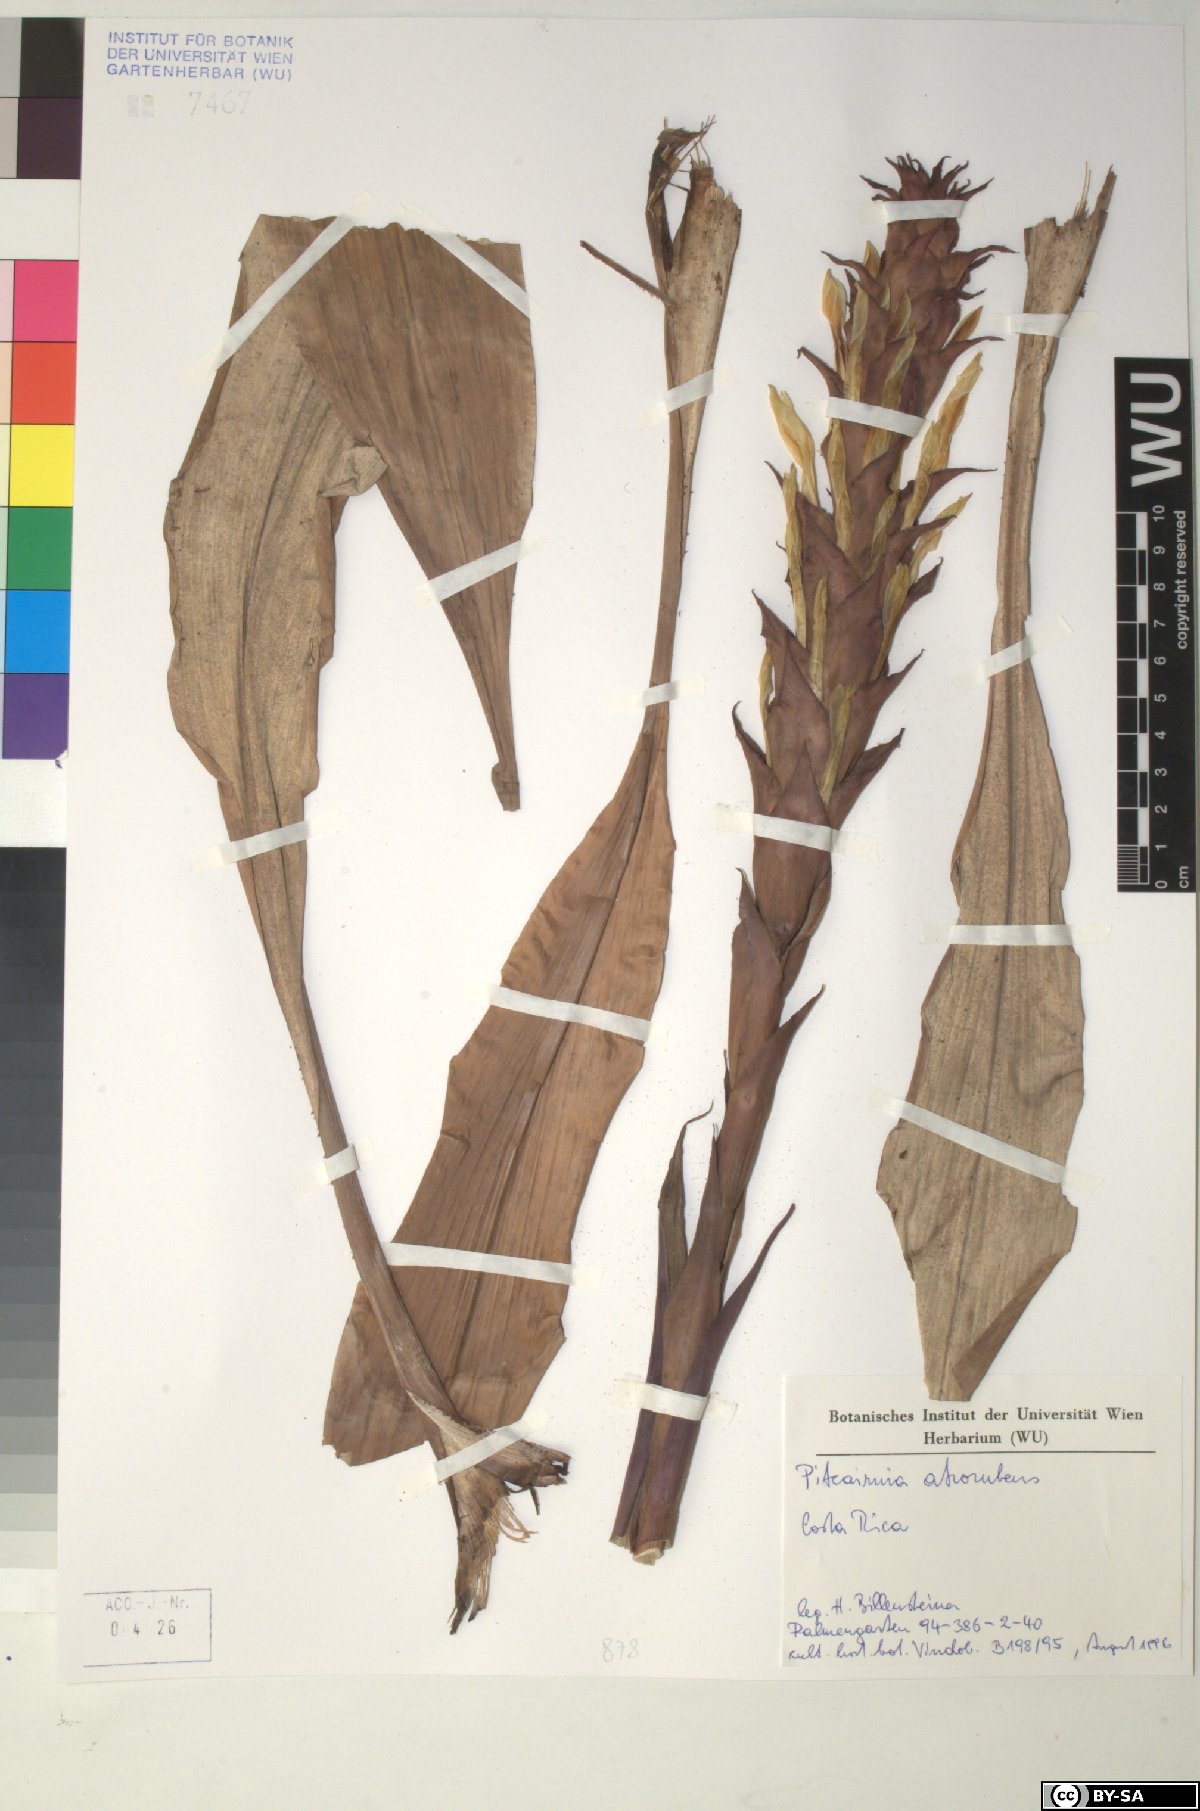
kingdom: Plantae
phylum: Tracheophyta
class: Liliopsida
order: Poales
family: Bromeliaceae
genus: Pitcairnia
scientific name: Pitcairnia atrorubens
